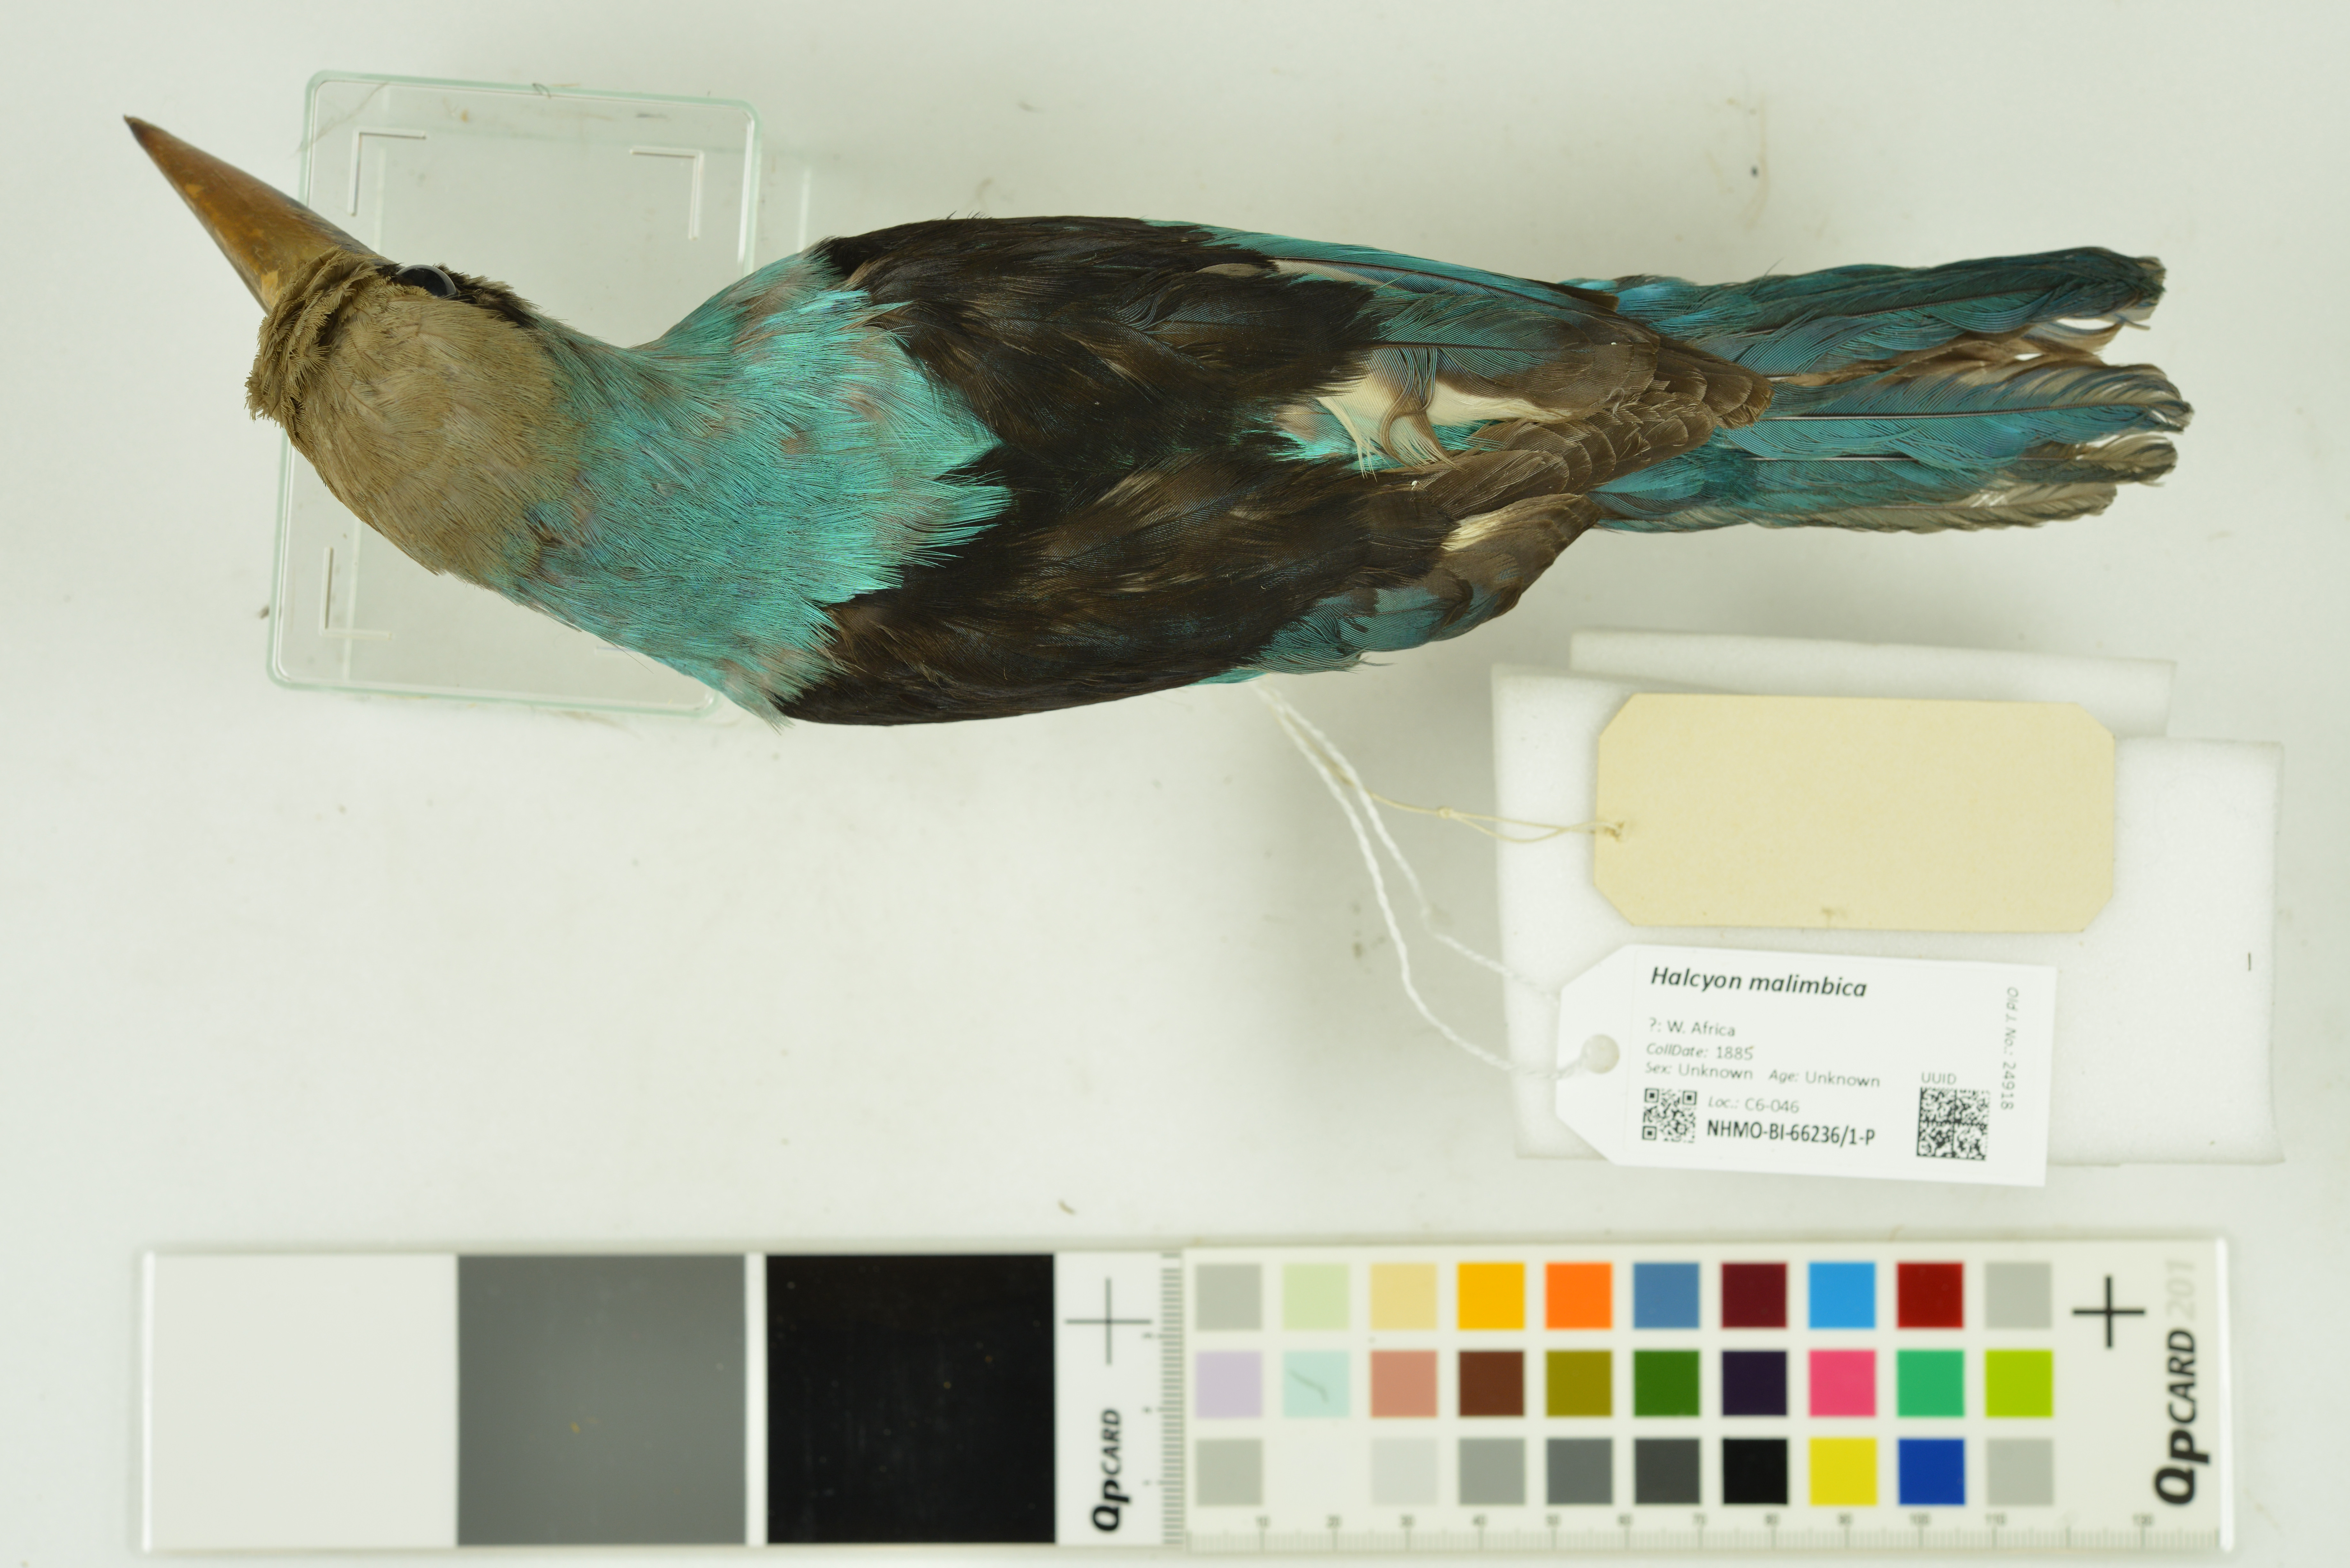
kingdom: Animalia
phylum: Chordata
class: Aves
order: Coraciiformes
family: Alcedinidae
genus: Halcyon
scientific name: Halcyon malimbica
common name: Blue-breasted kingfisher
